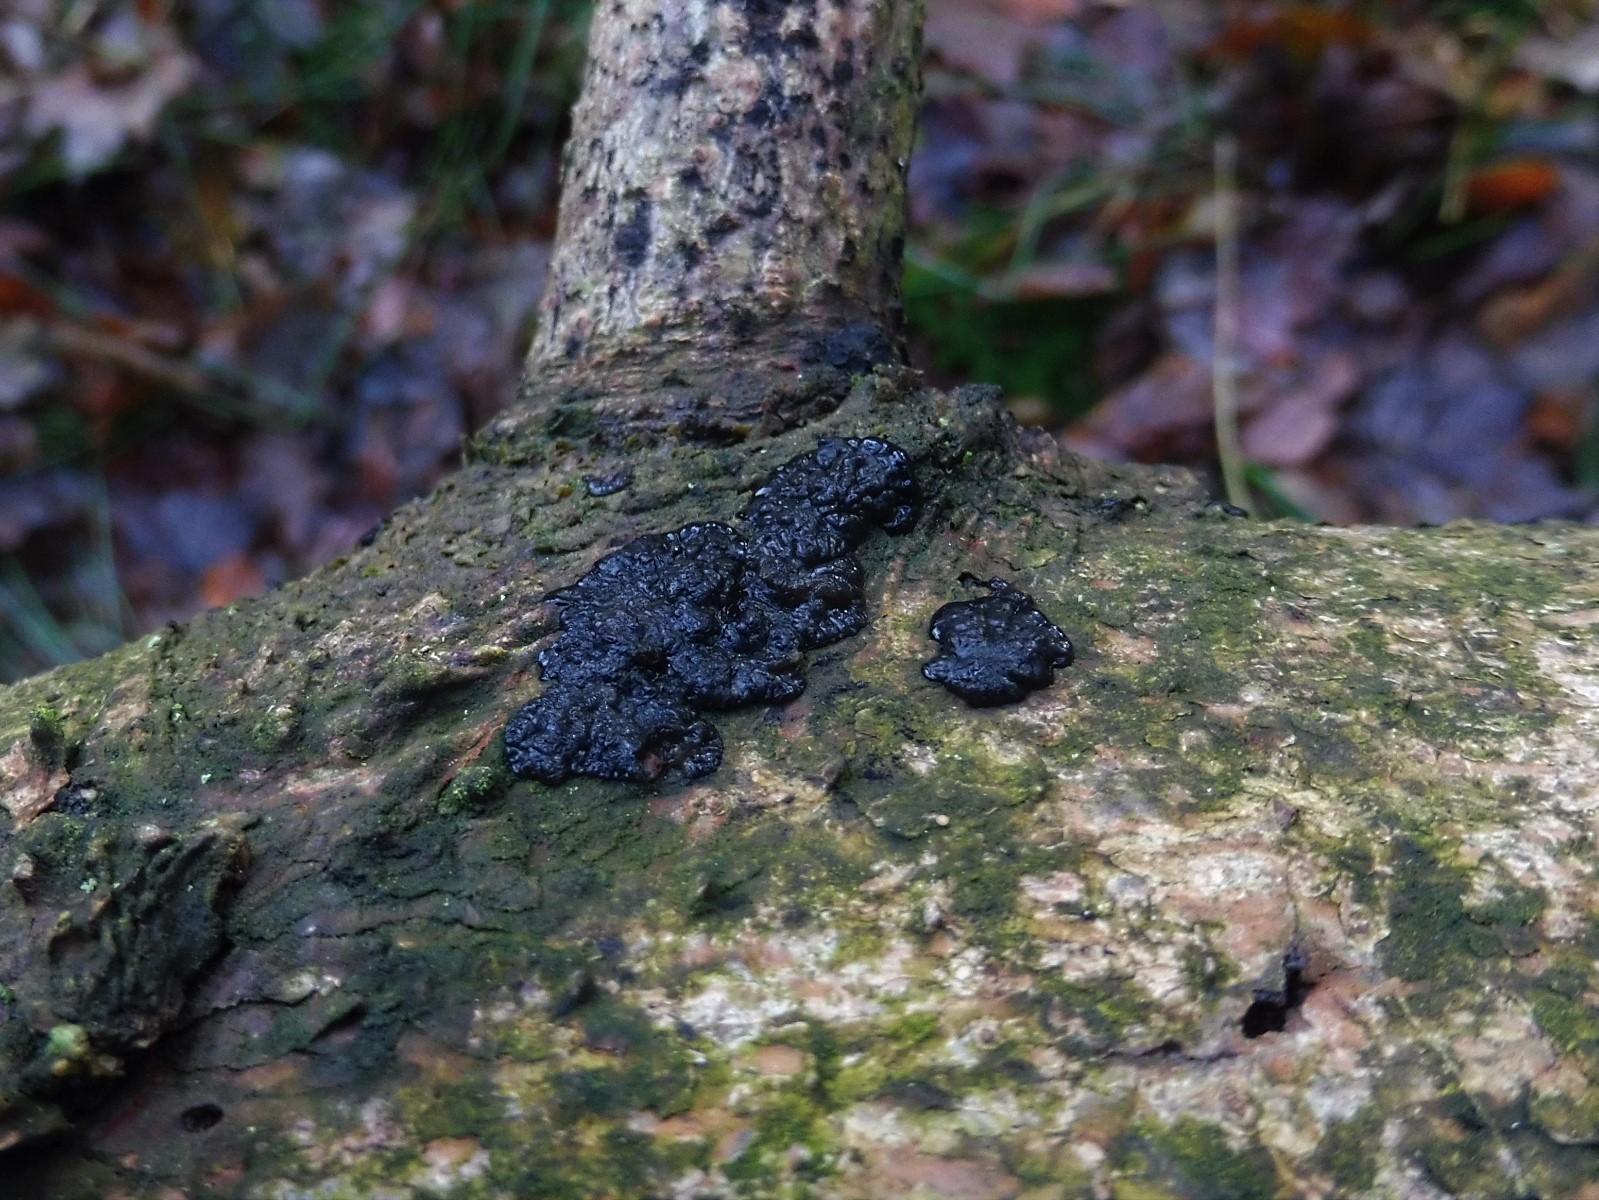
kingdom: Fungi
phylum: Basidiomycota
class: Agaricomycetes
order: Auriculariales
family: Auriculariaceae
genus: Exidia
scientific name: Exidia pithya
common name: gran-bævretop
